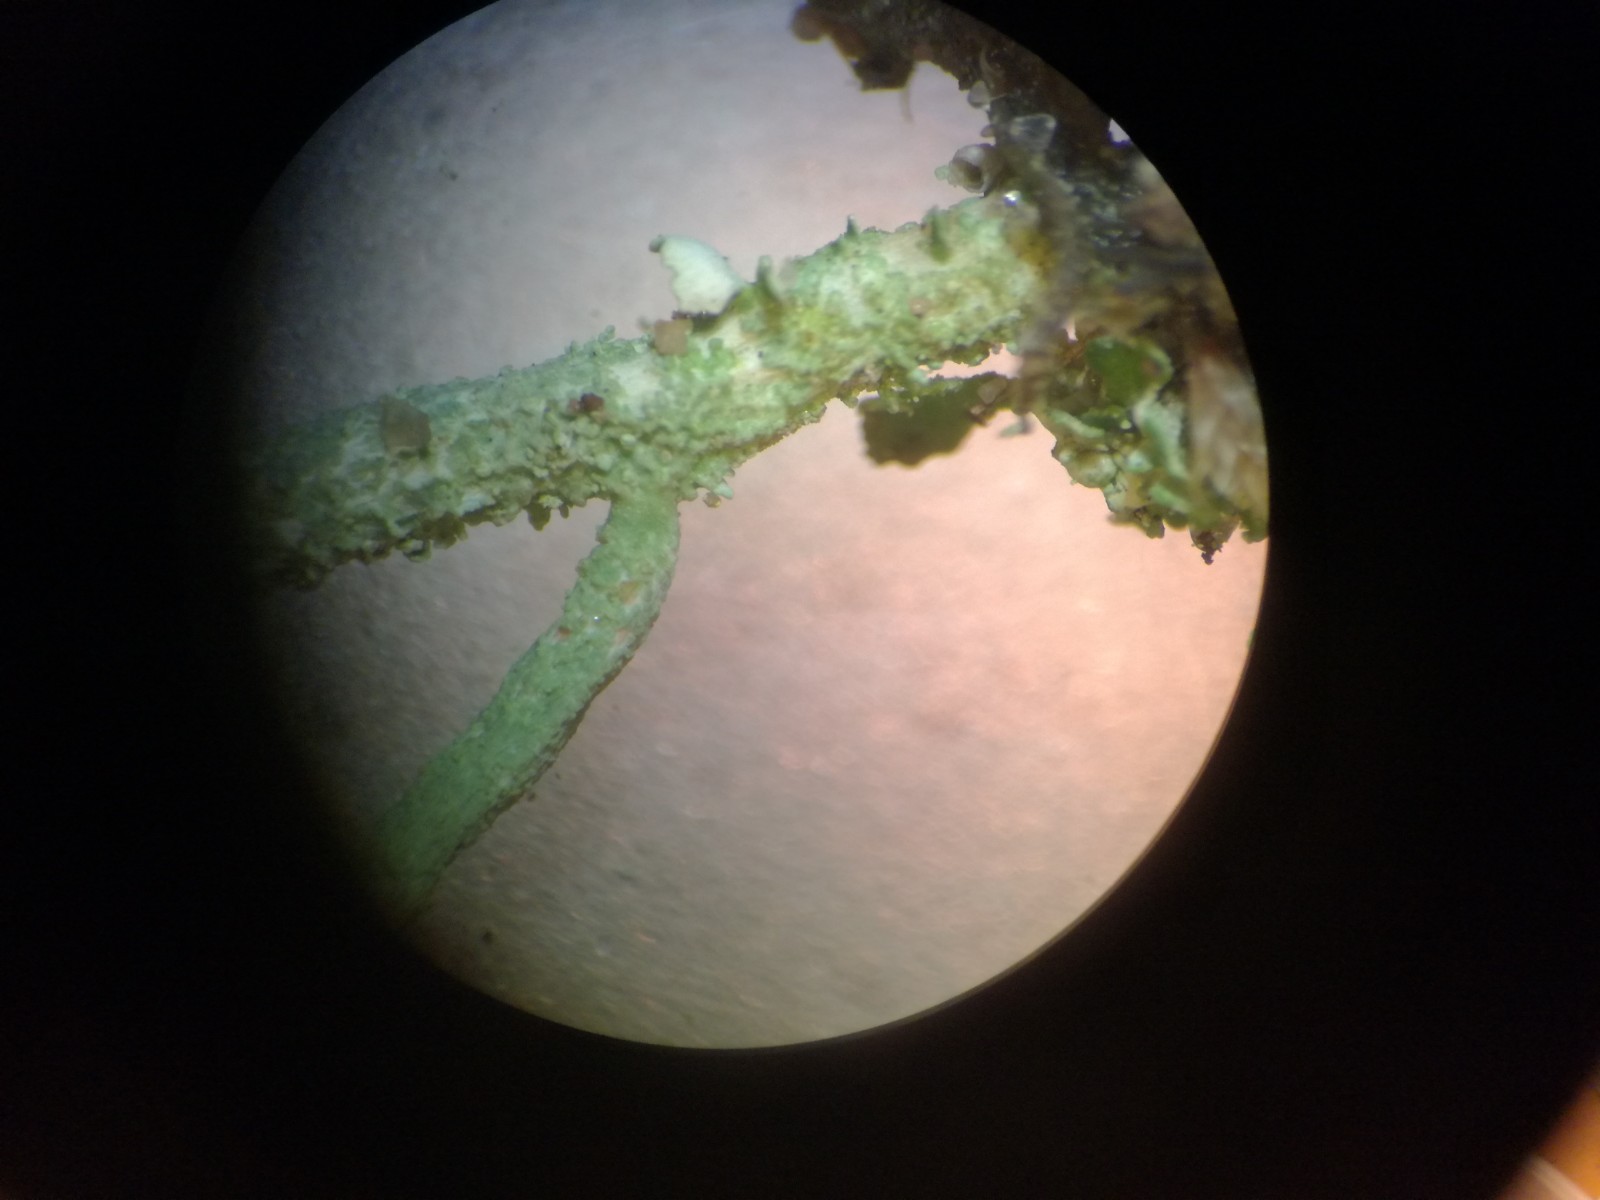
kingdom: Fungi
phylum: Ascomycota
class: Lecanoromycetes
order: Lecanorales
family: Cladoniaceae
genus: Cladonia
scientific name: Cladonia subulata
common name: spids bægerlav
